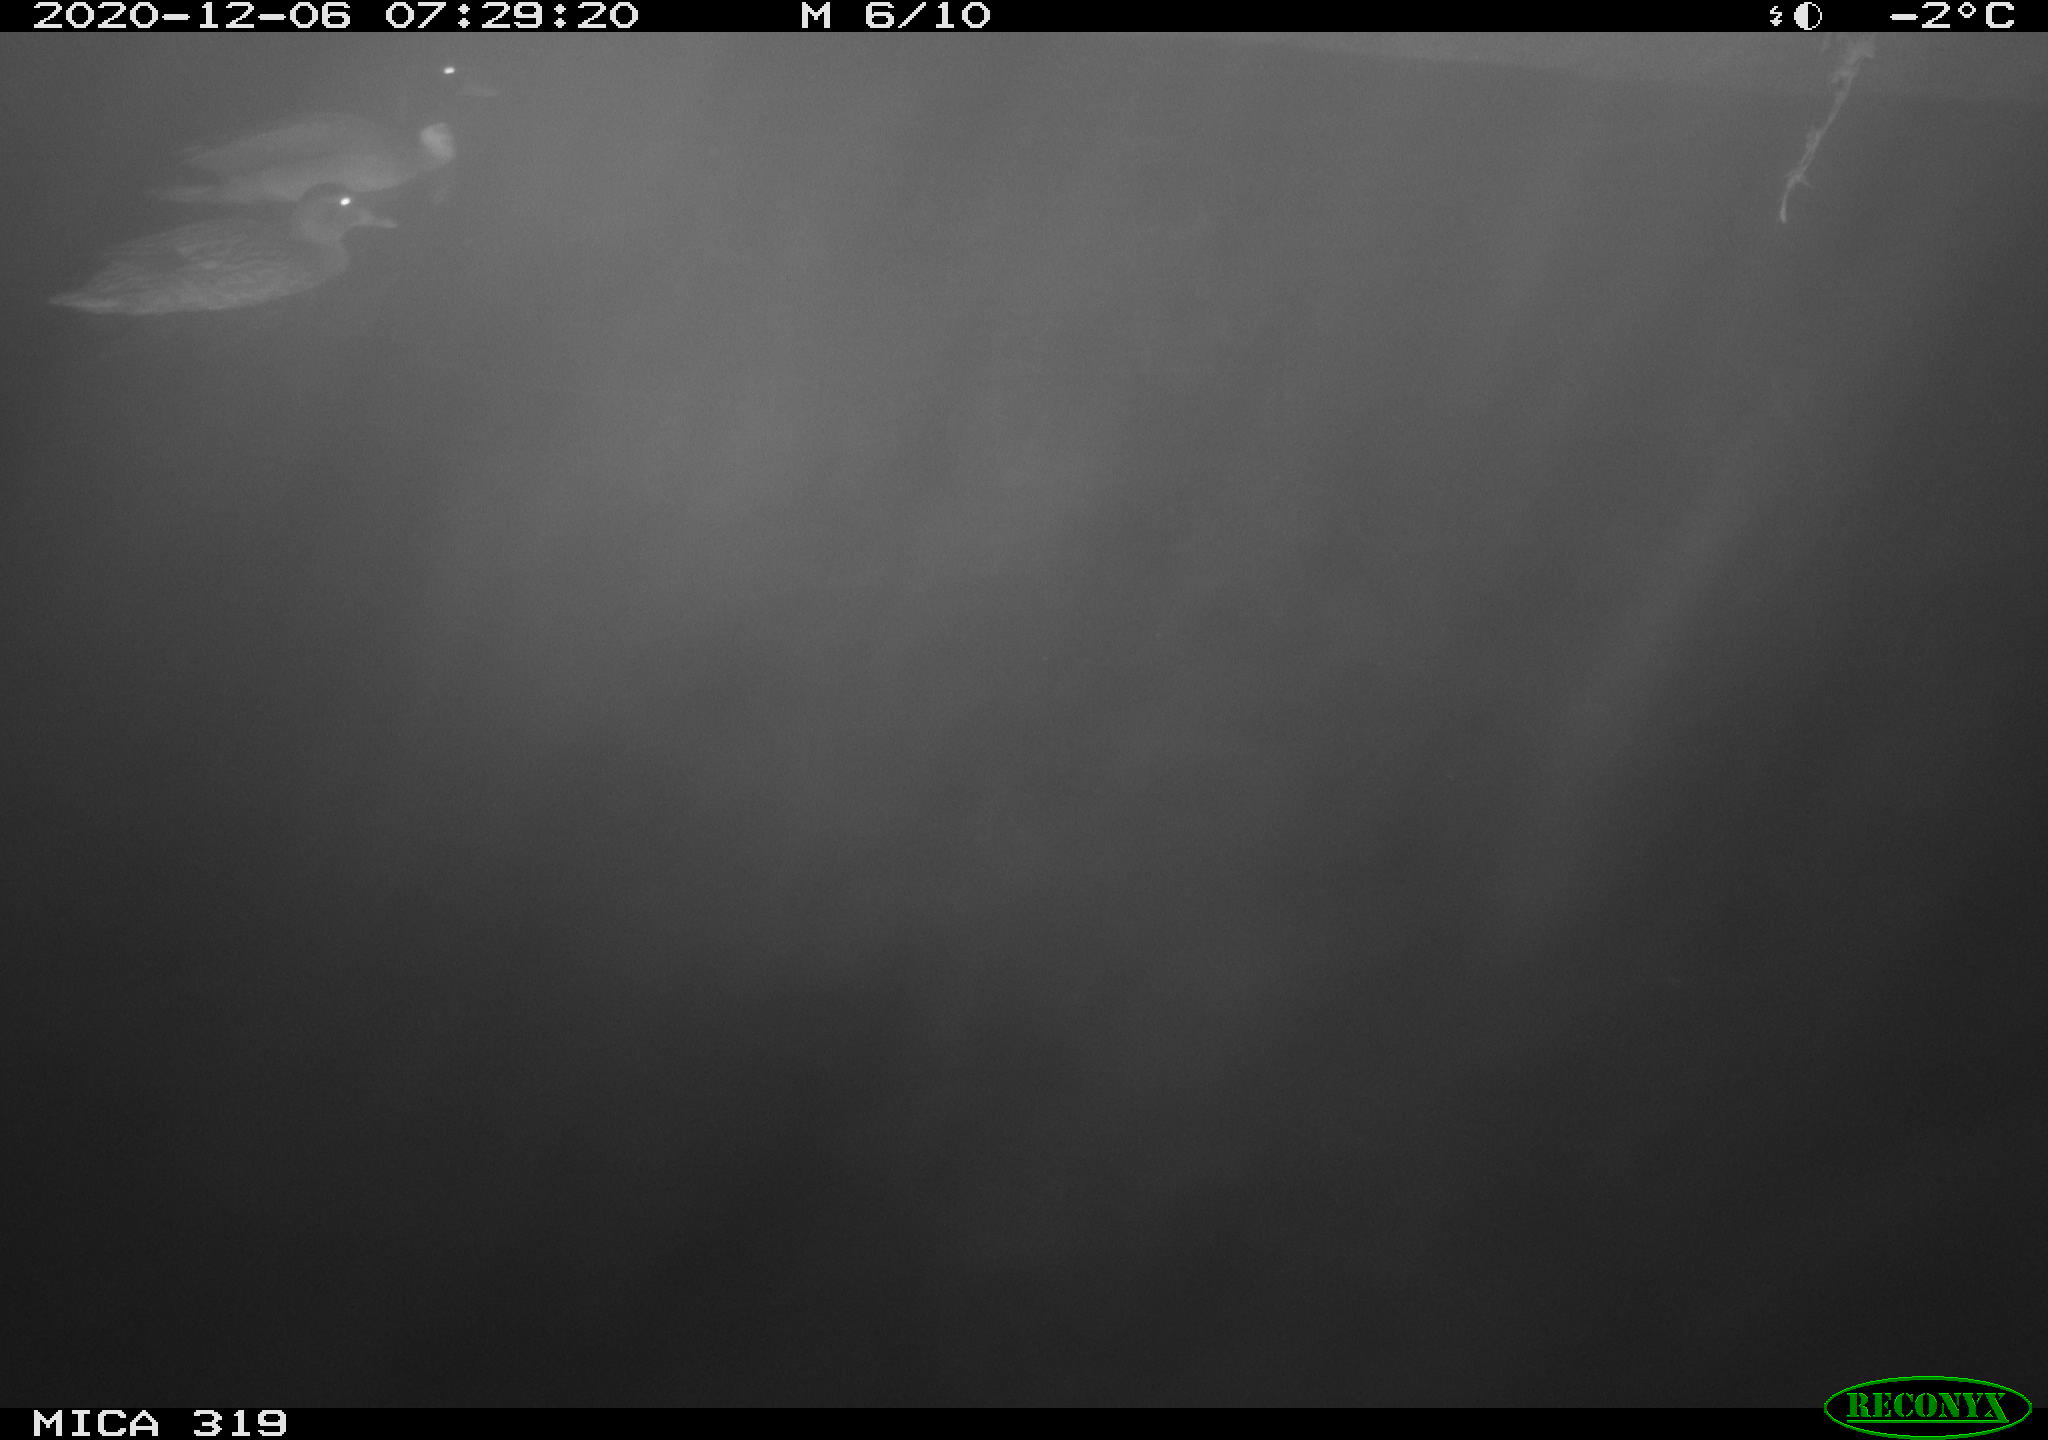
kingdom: Animalia
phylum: Chordata
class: Aves
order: Anseriformes
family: Anatidae
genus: Anas
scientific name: Anas platyrhynchos
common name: Mallard
